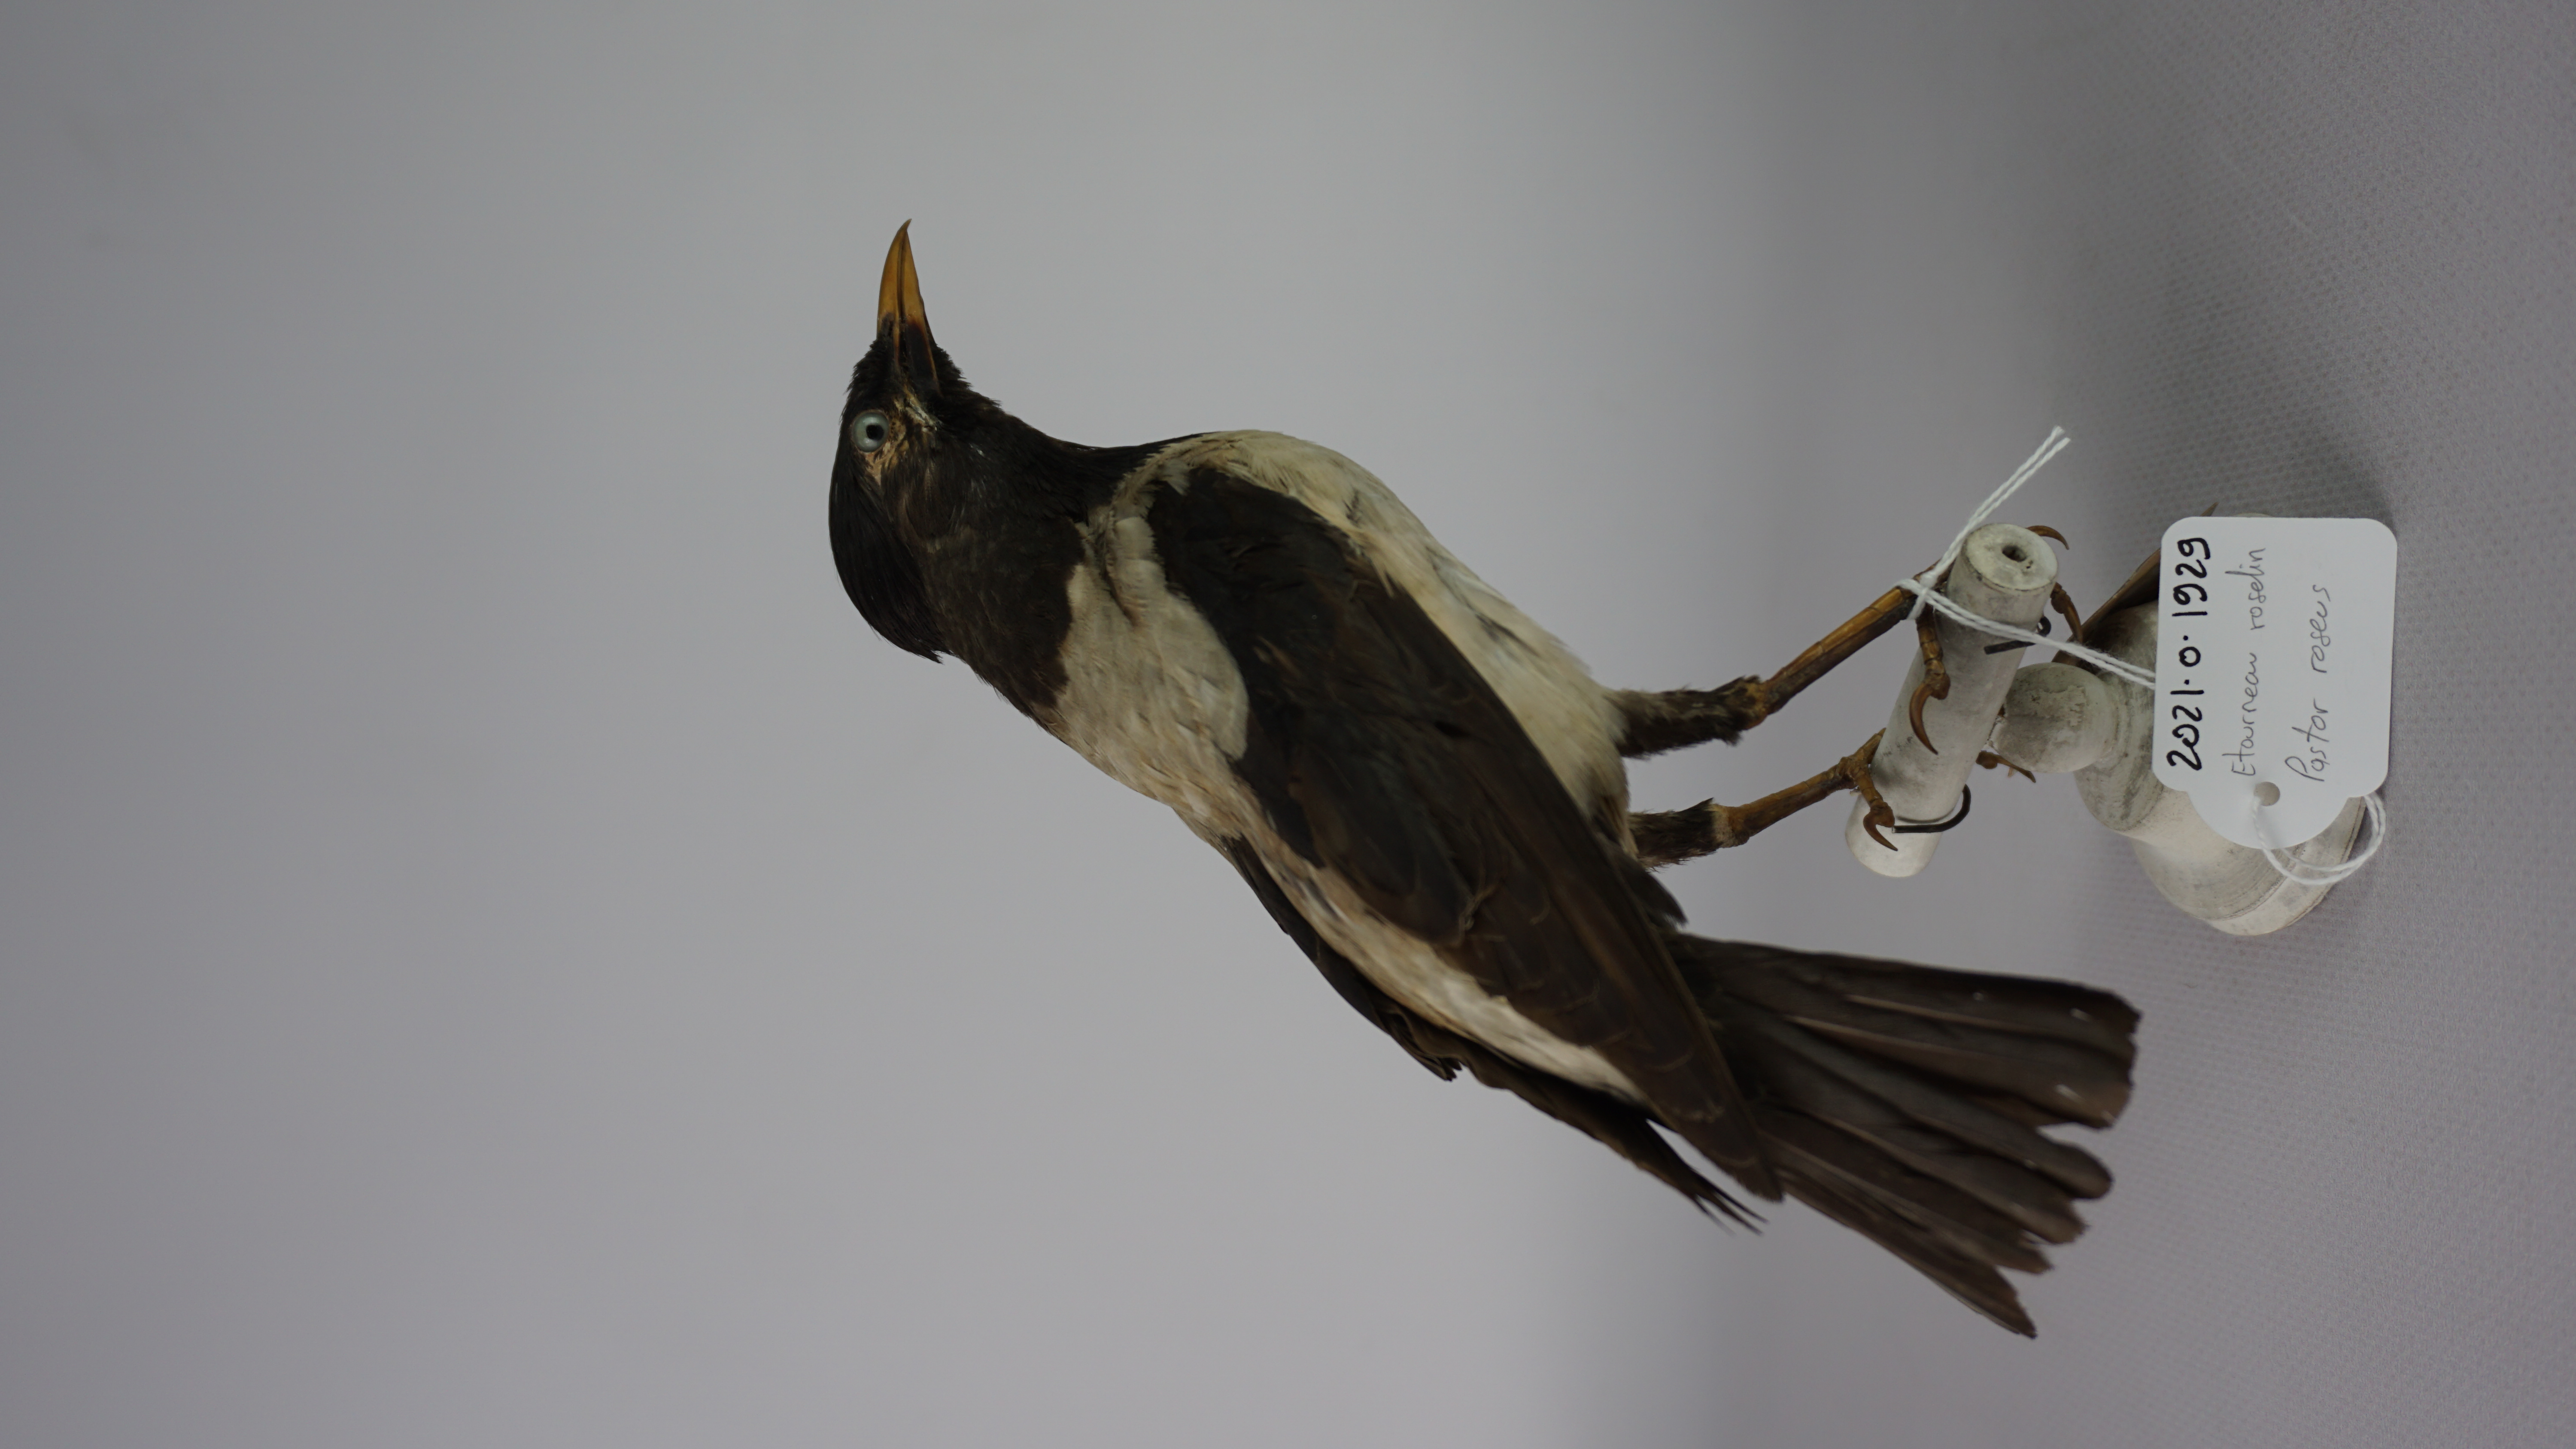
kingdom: Animalia
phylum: Chordata
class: Aves
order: Passeriformes
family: Sturnidae
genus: Pastor
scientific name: Pastor roseus
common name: Rosy starling
